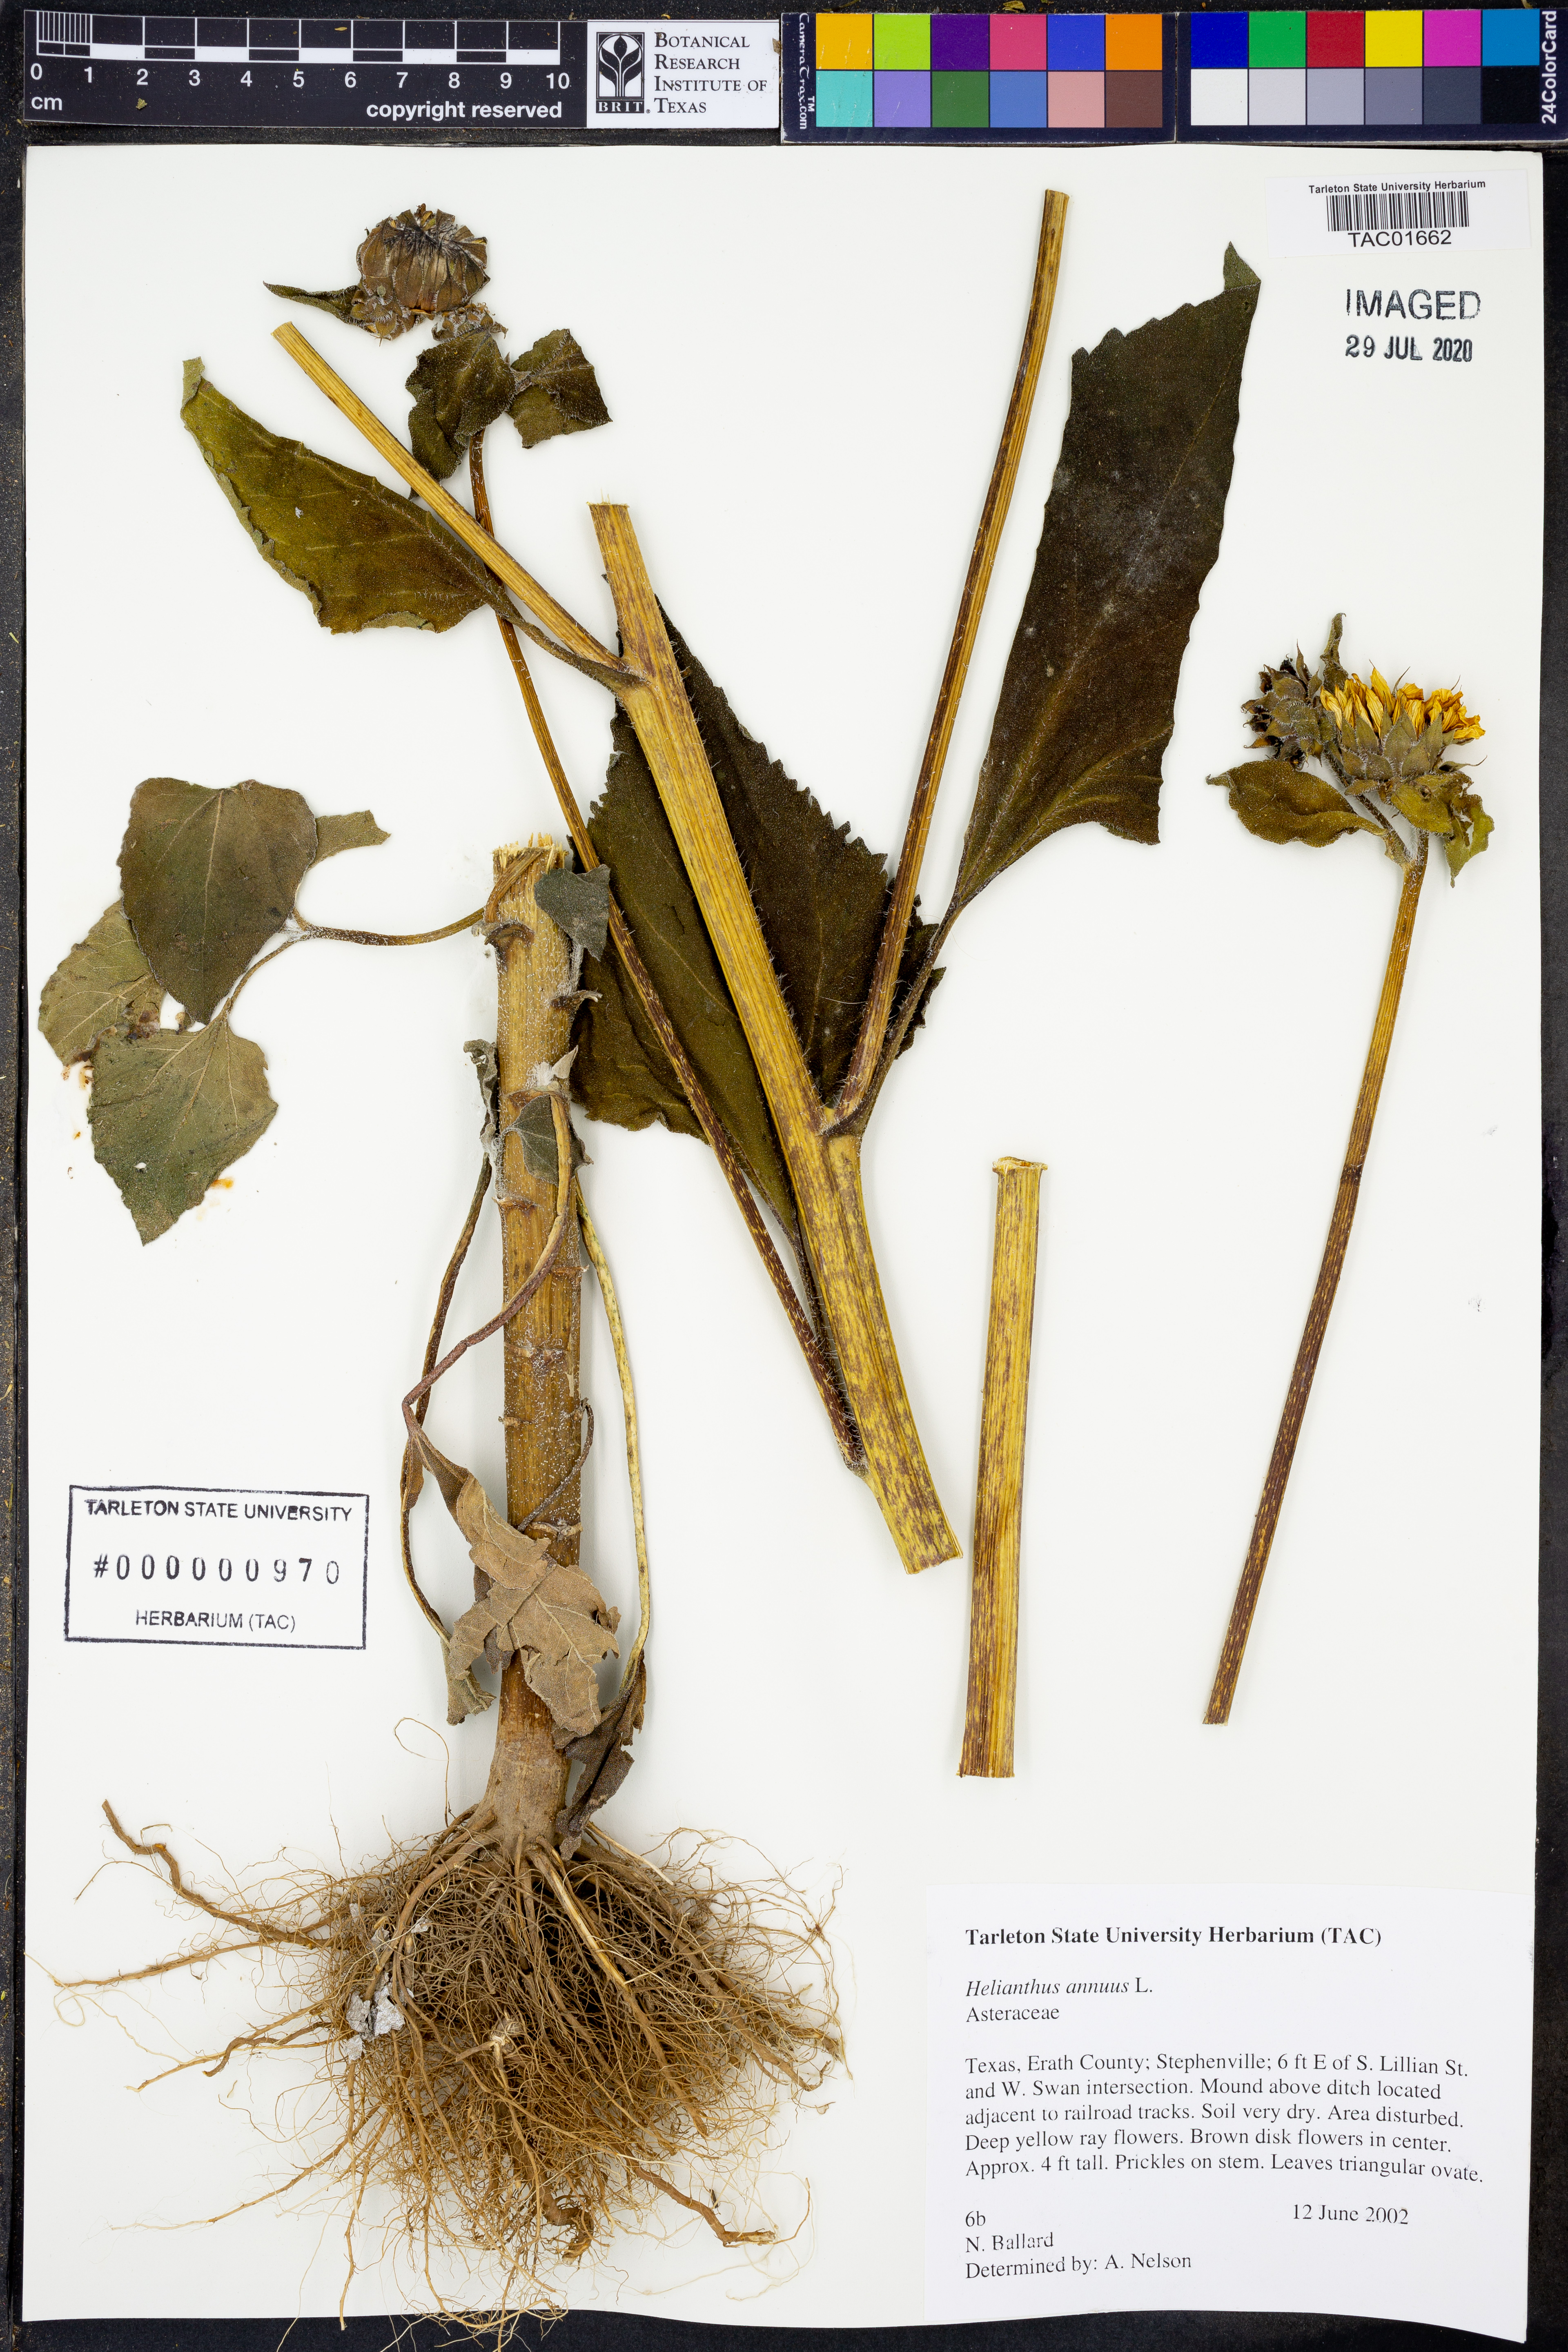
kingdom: Plantae
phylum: Tracheophyta
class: Magnoliopsida
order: Asterales
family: Asteraceae
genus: Helianthus
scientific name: Helianthus annuus
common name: Sunflower
